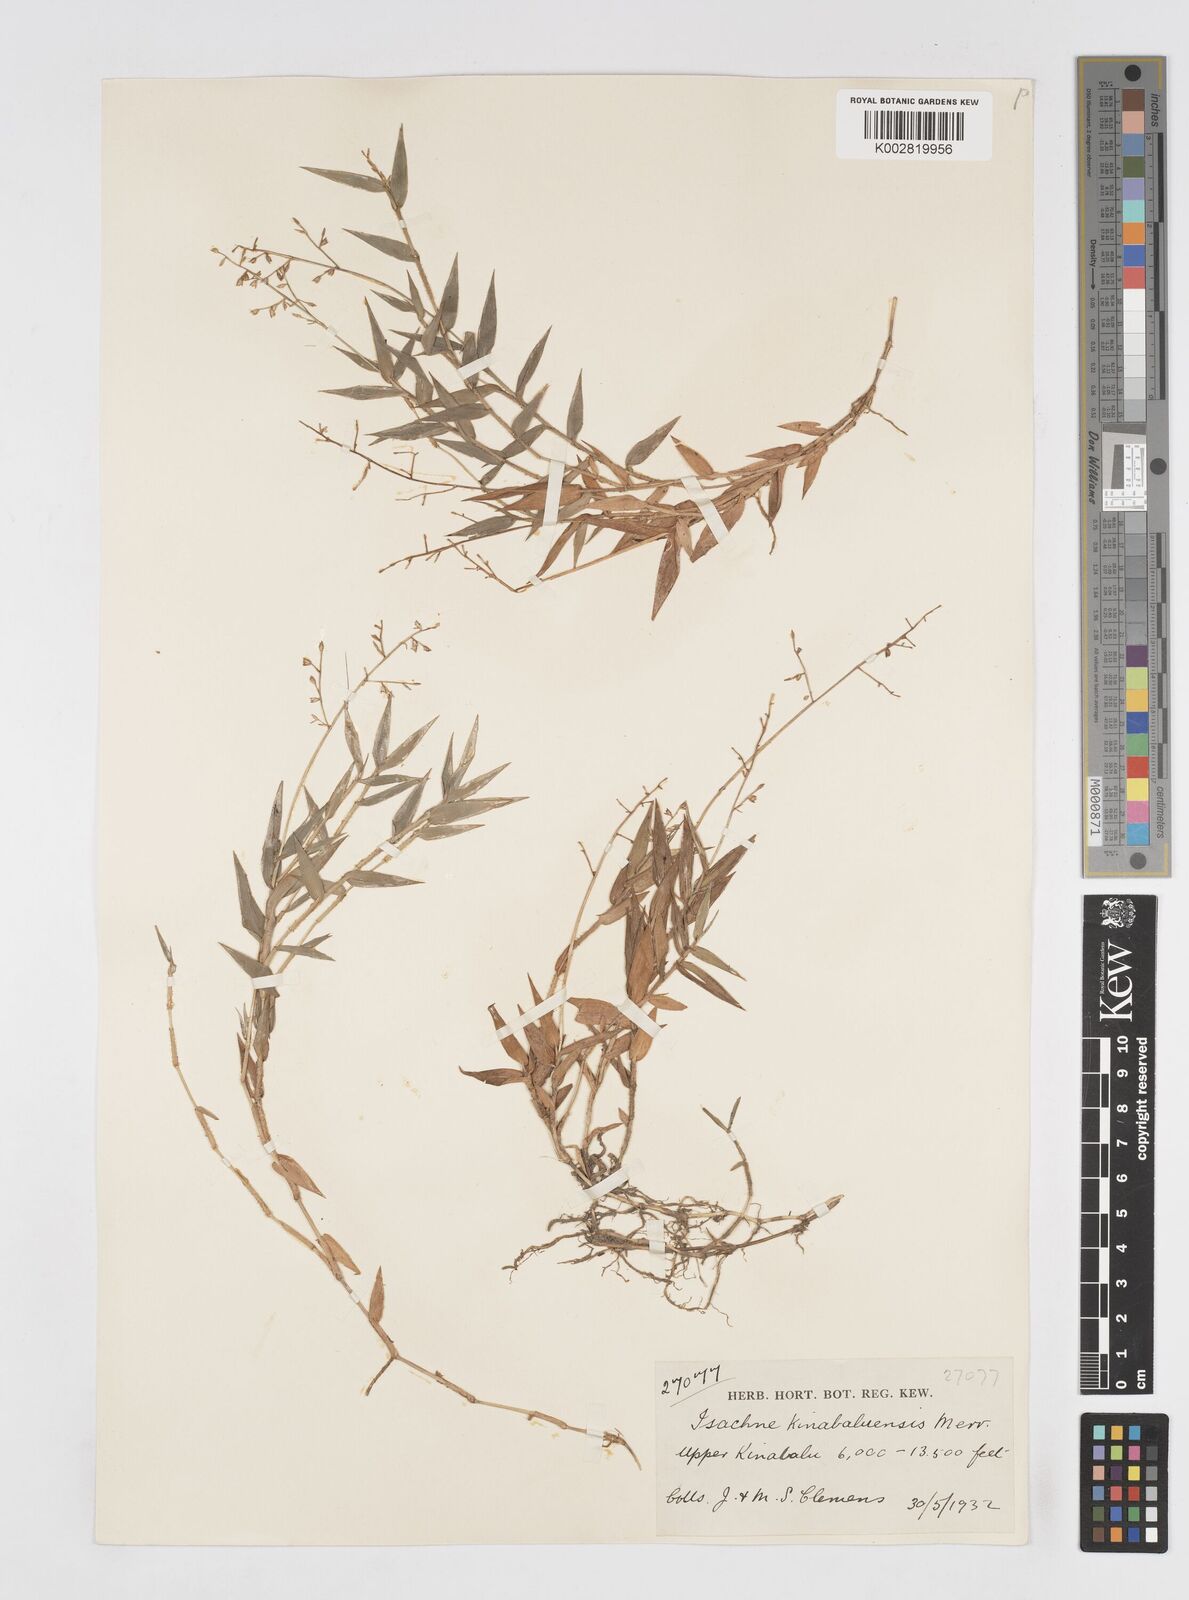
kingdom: Plantae
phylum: Tracheophyta
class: Liliopsida
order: Poales
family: Poaceae
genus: Isachne
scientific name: Isachne clementis
